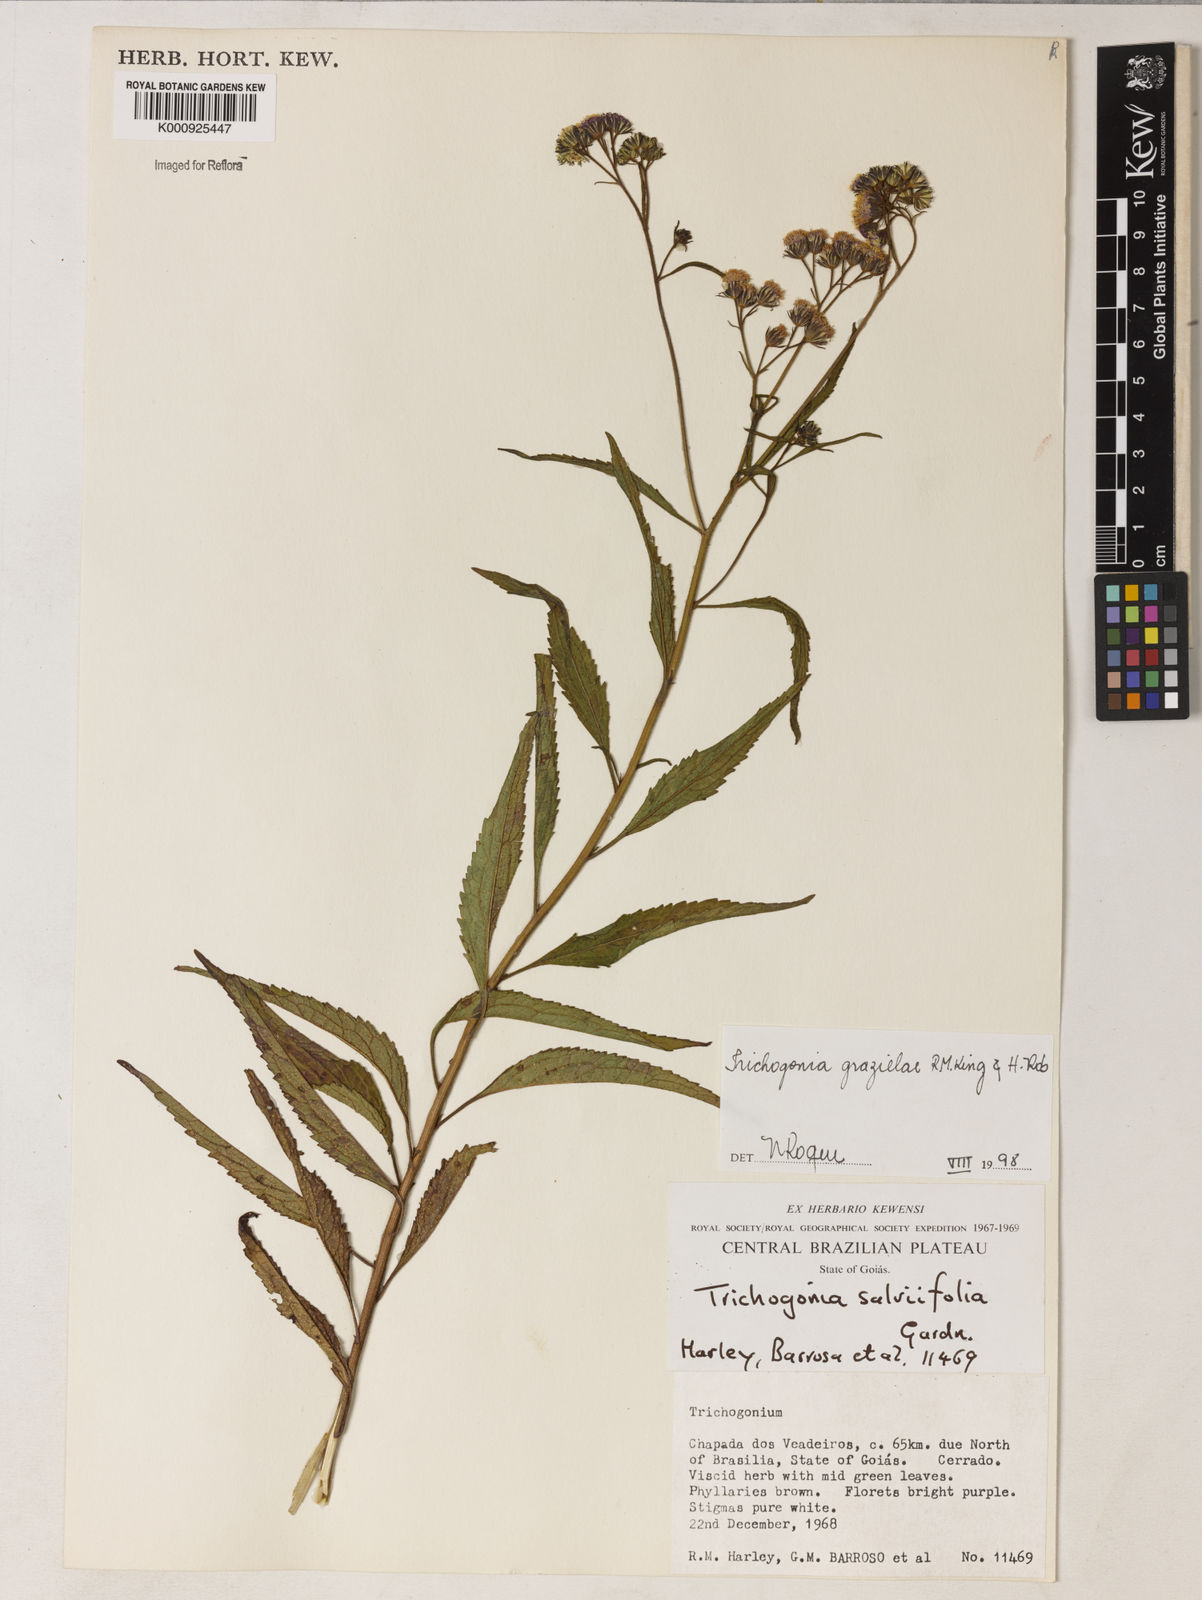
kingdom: Plantae
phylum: Tracheophyta
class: Magnoliopsida
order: Asterales
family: Asteraceae
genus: Trichogonia
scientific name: Trichogonia grazielae
